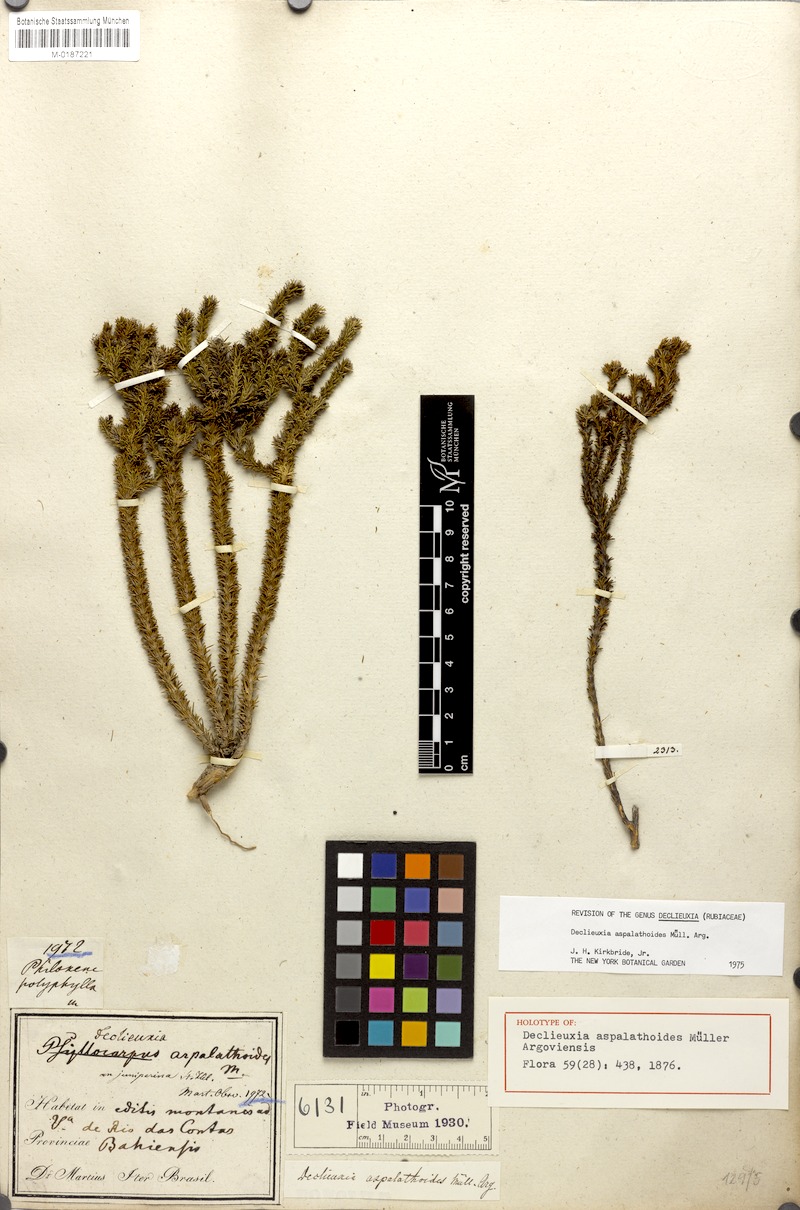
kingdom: Plantae
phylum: Tracheophyta
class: Magnoliopsida
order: Gentianales
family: Rubiaceae
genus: Declieuxia
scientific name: Declieuxia aspalathoides
